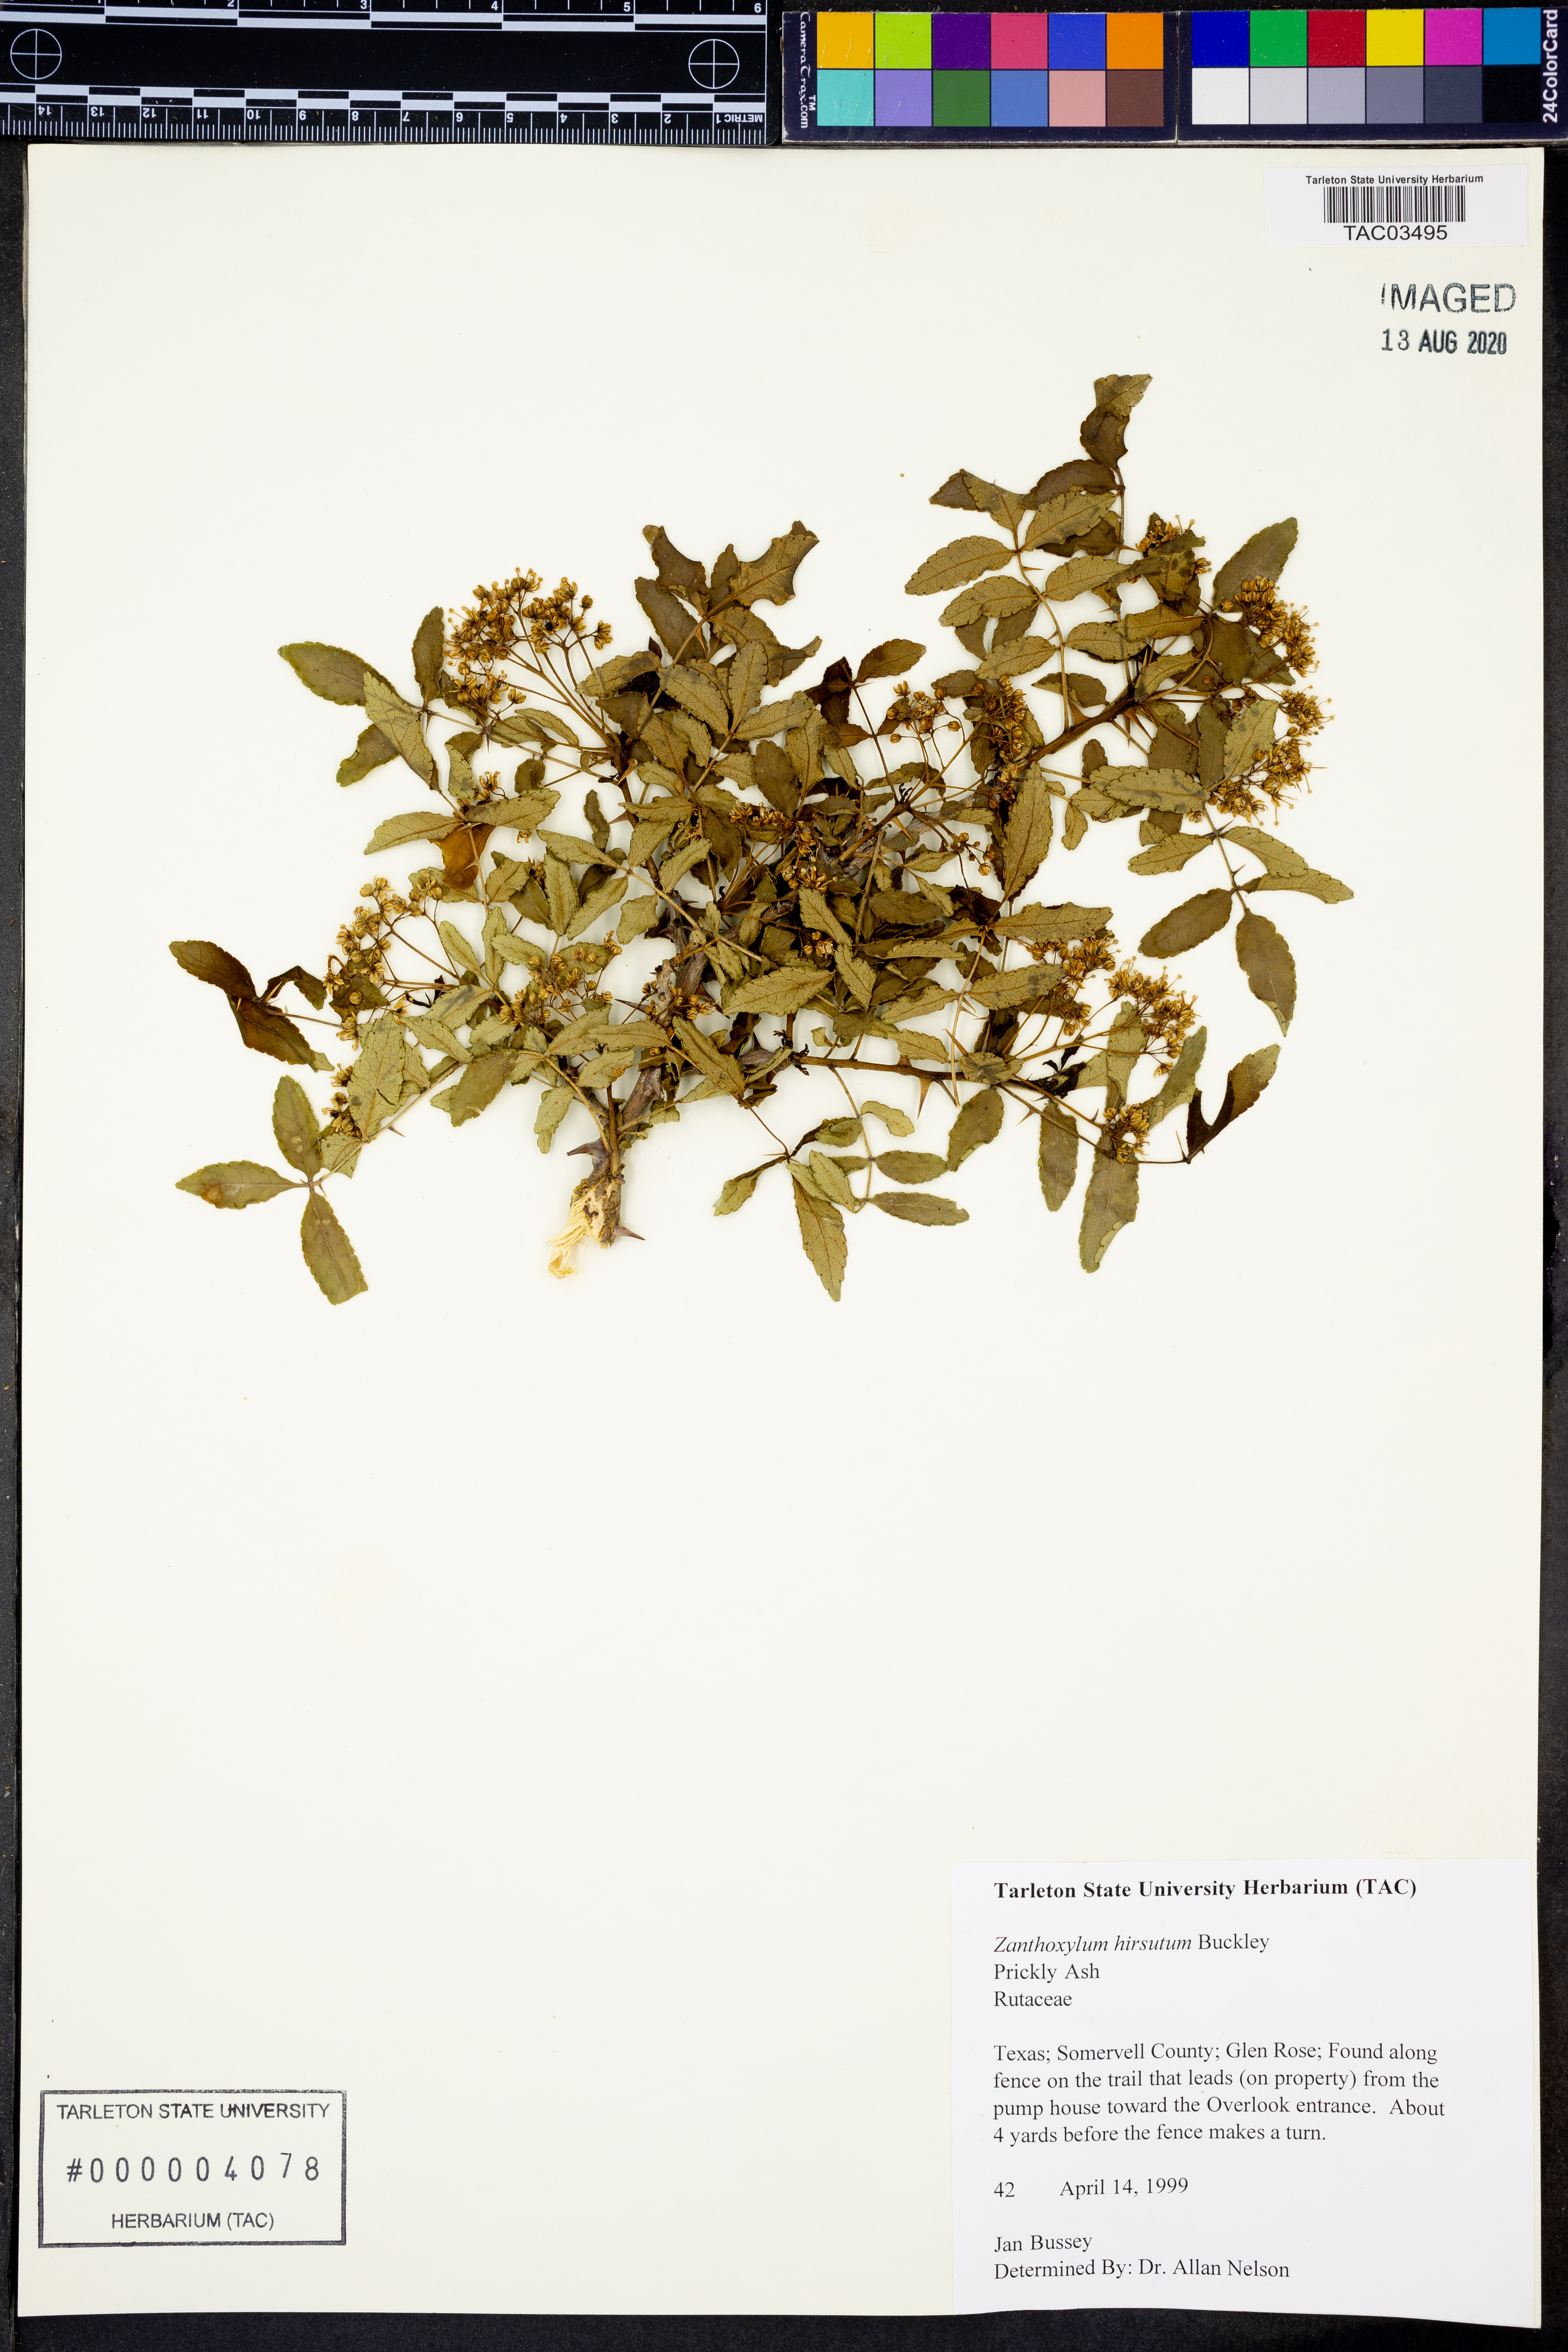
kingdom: Plantae
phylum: Tracheophyta
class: Magnoliopsida
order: Sapindales
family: Rutaceae
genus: Zanthoxylum
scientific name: Zanthoxylum clava-herculis
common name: Hercules'-club
